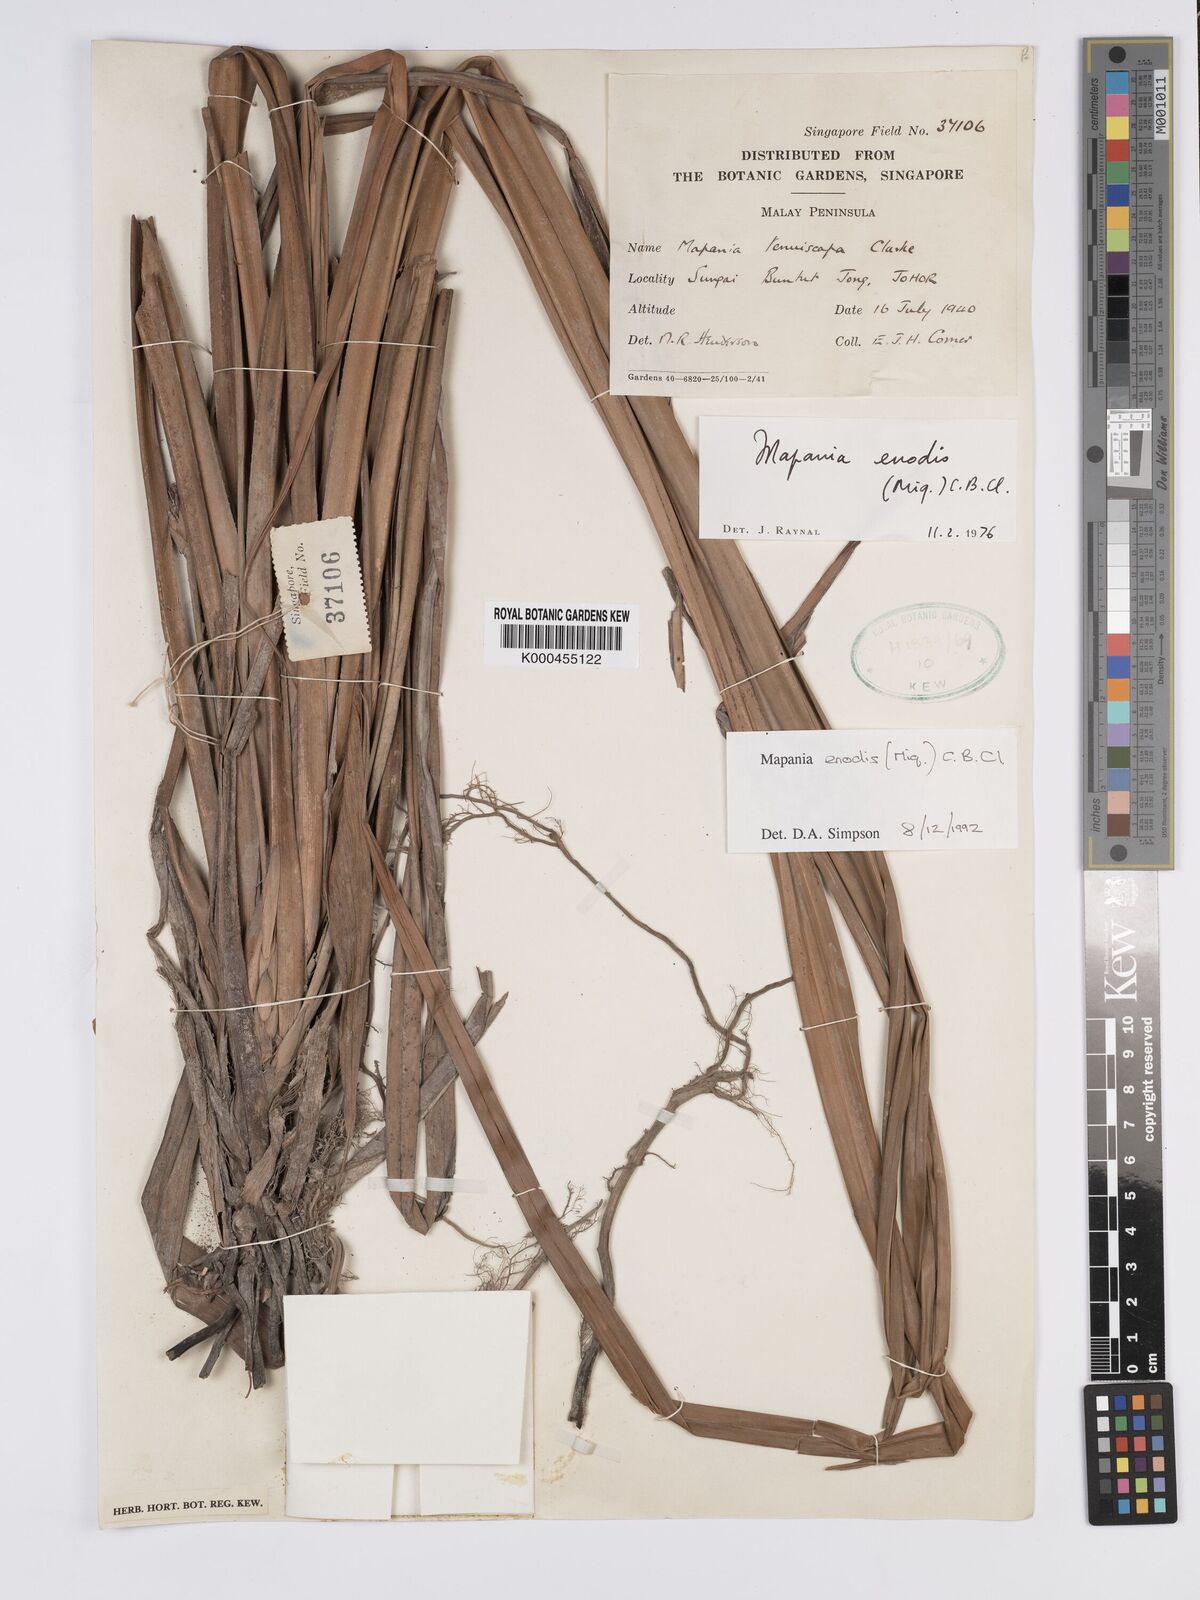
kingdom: Plantae
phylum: Tracheophyta
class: Liliopsida
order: Poales
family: Cyperaceae
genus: Mapania
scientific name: Mapania enodis
